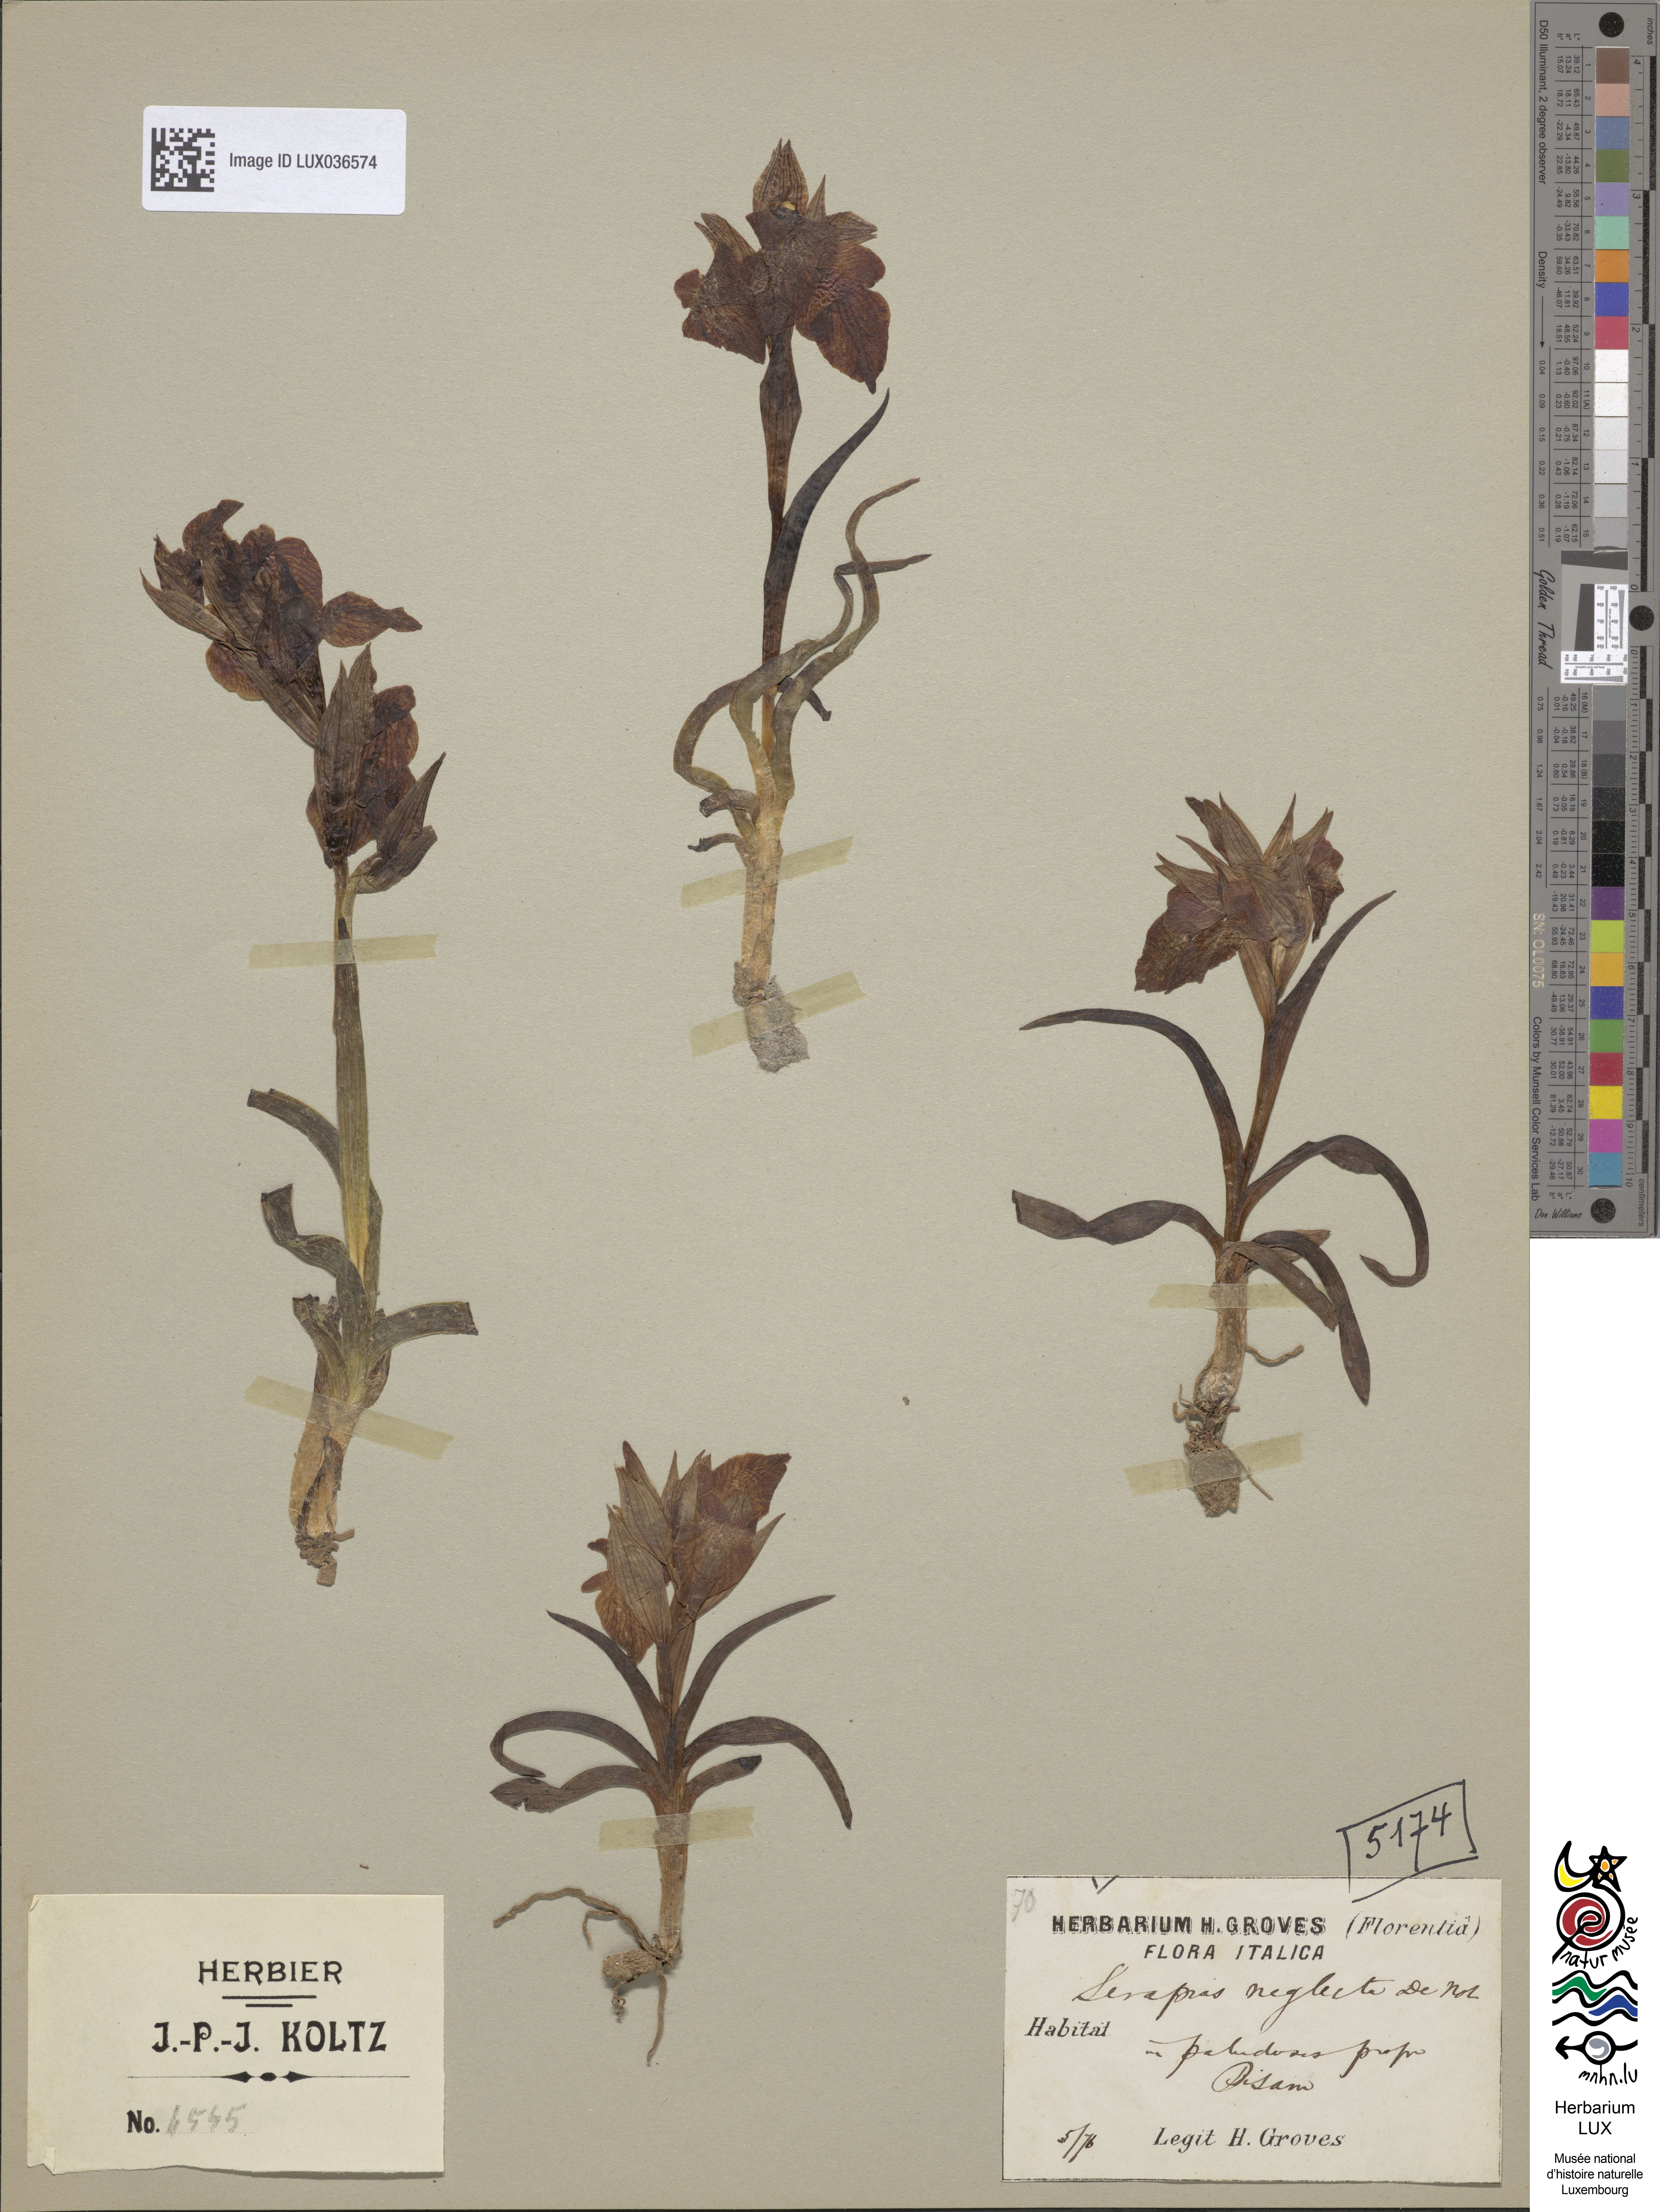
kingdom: Plantae
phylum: Tracheophyta
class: Liliopsida
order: Asparagales
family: Orchidaceae
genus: Serapias
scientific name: Serapias neglecta
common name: Neglected serapias
